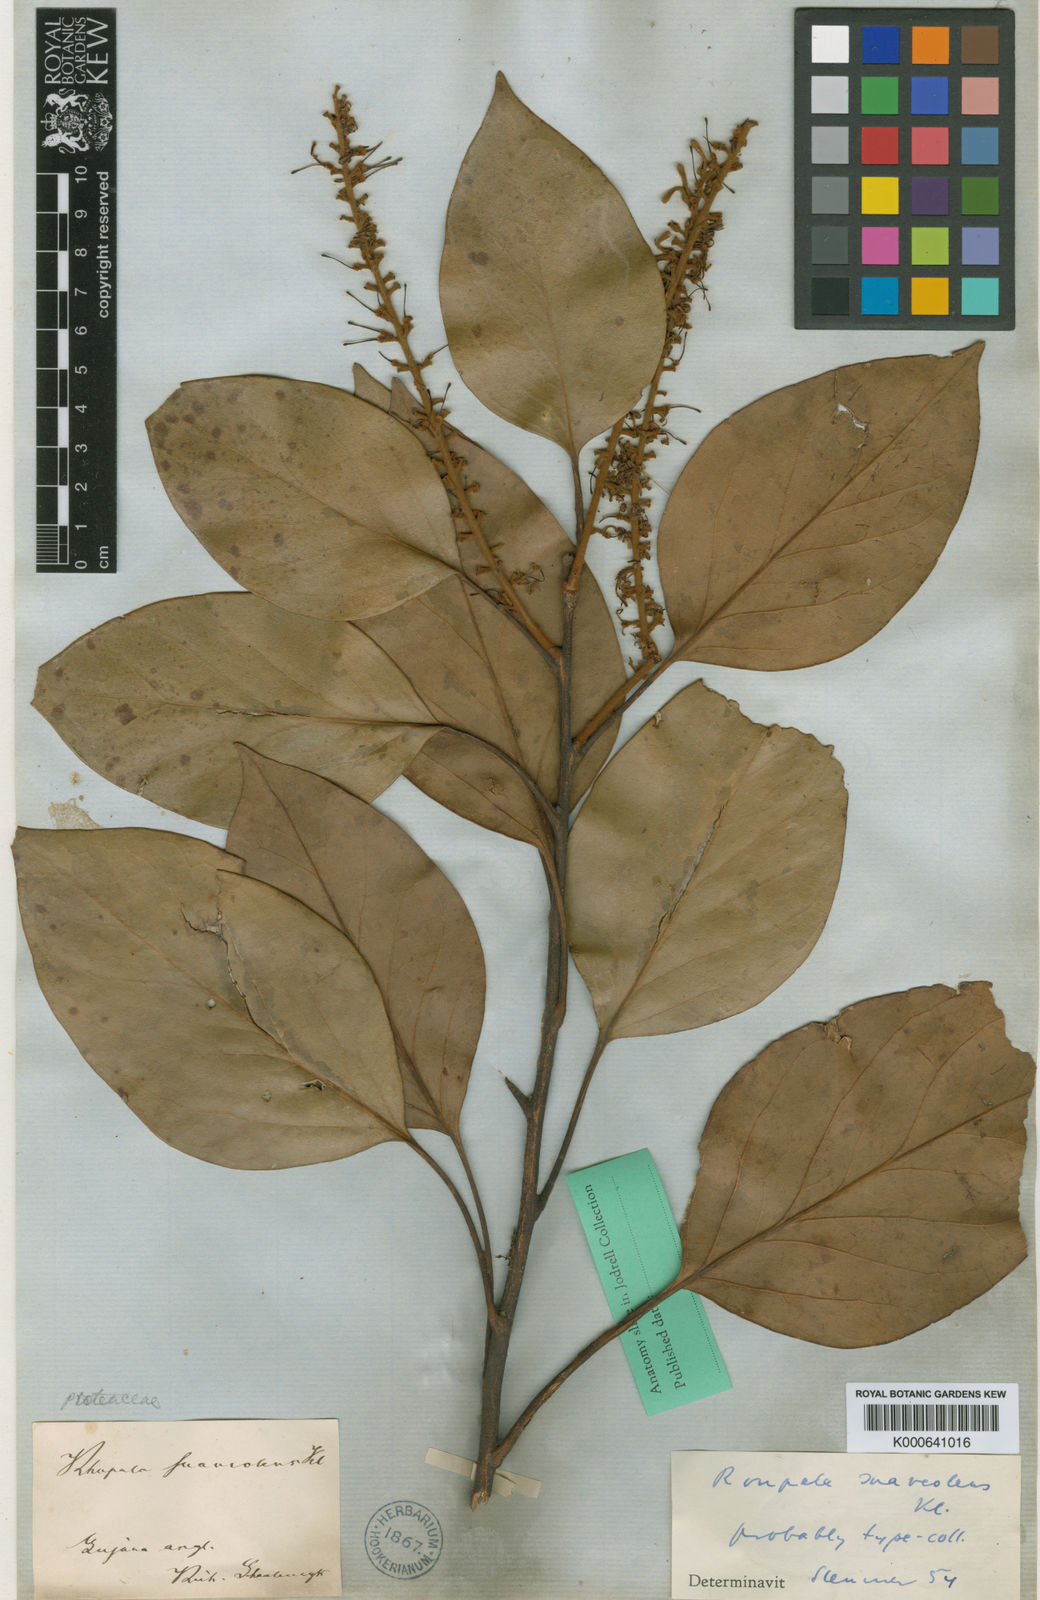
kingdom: Plantae
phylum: Tracheophyta
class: Magnoliopsida
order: Proteales
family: Proteaceae
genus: Roupala
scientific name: Roupala suaveolens
